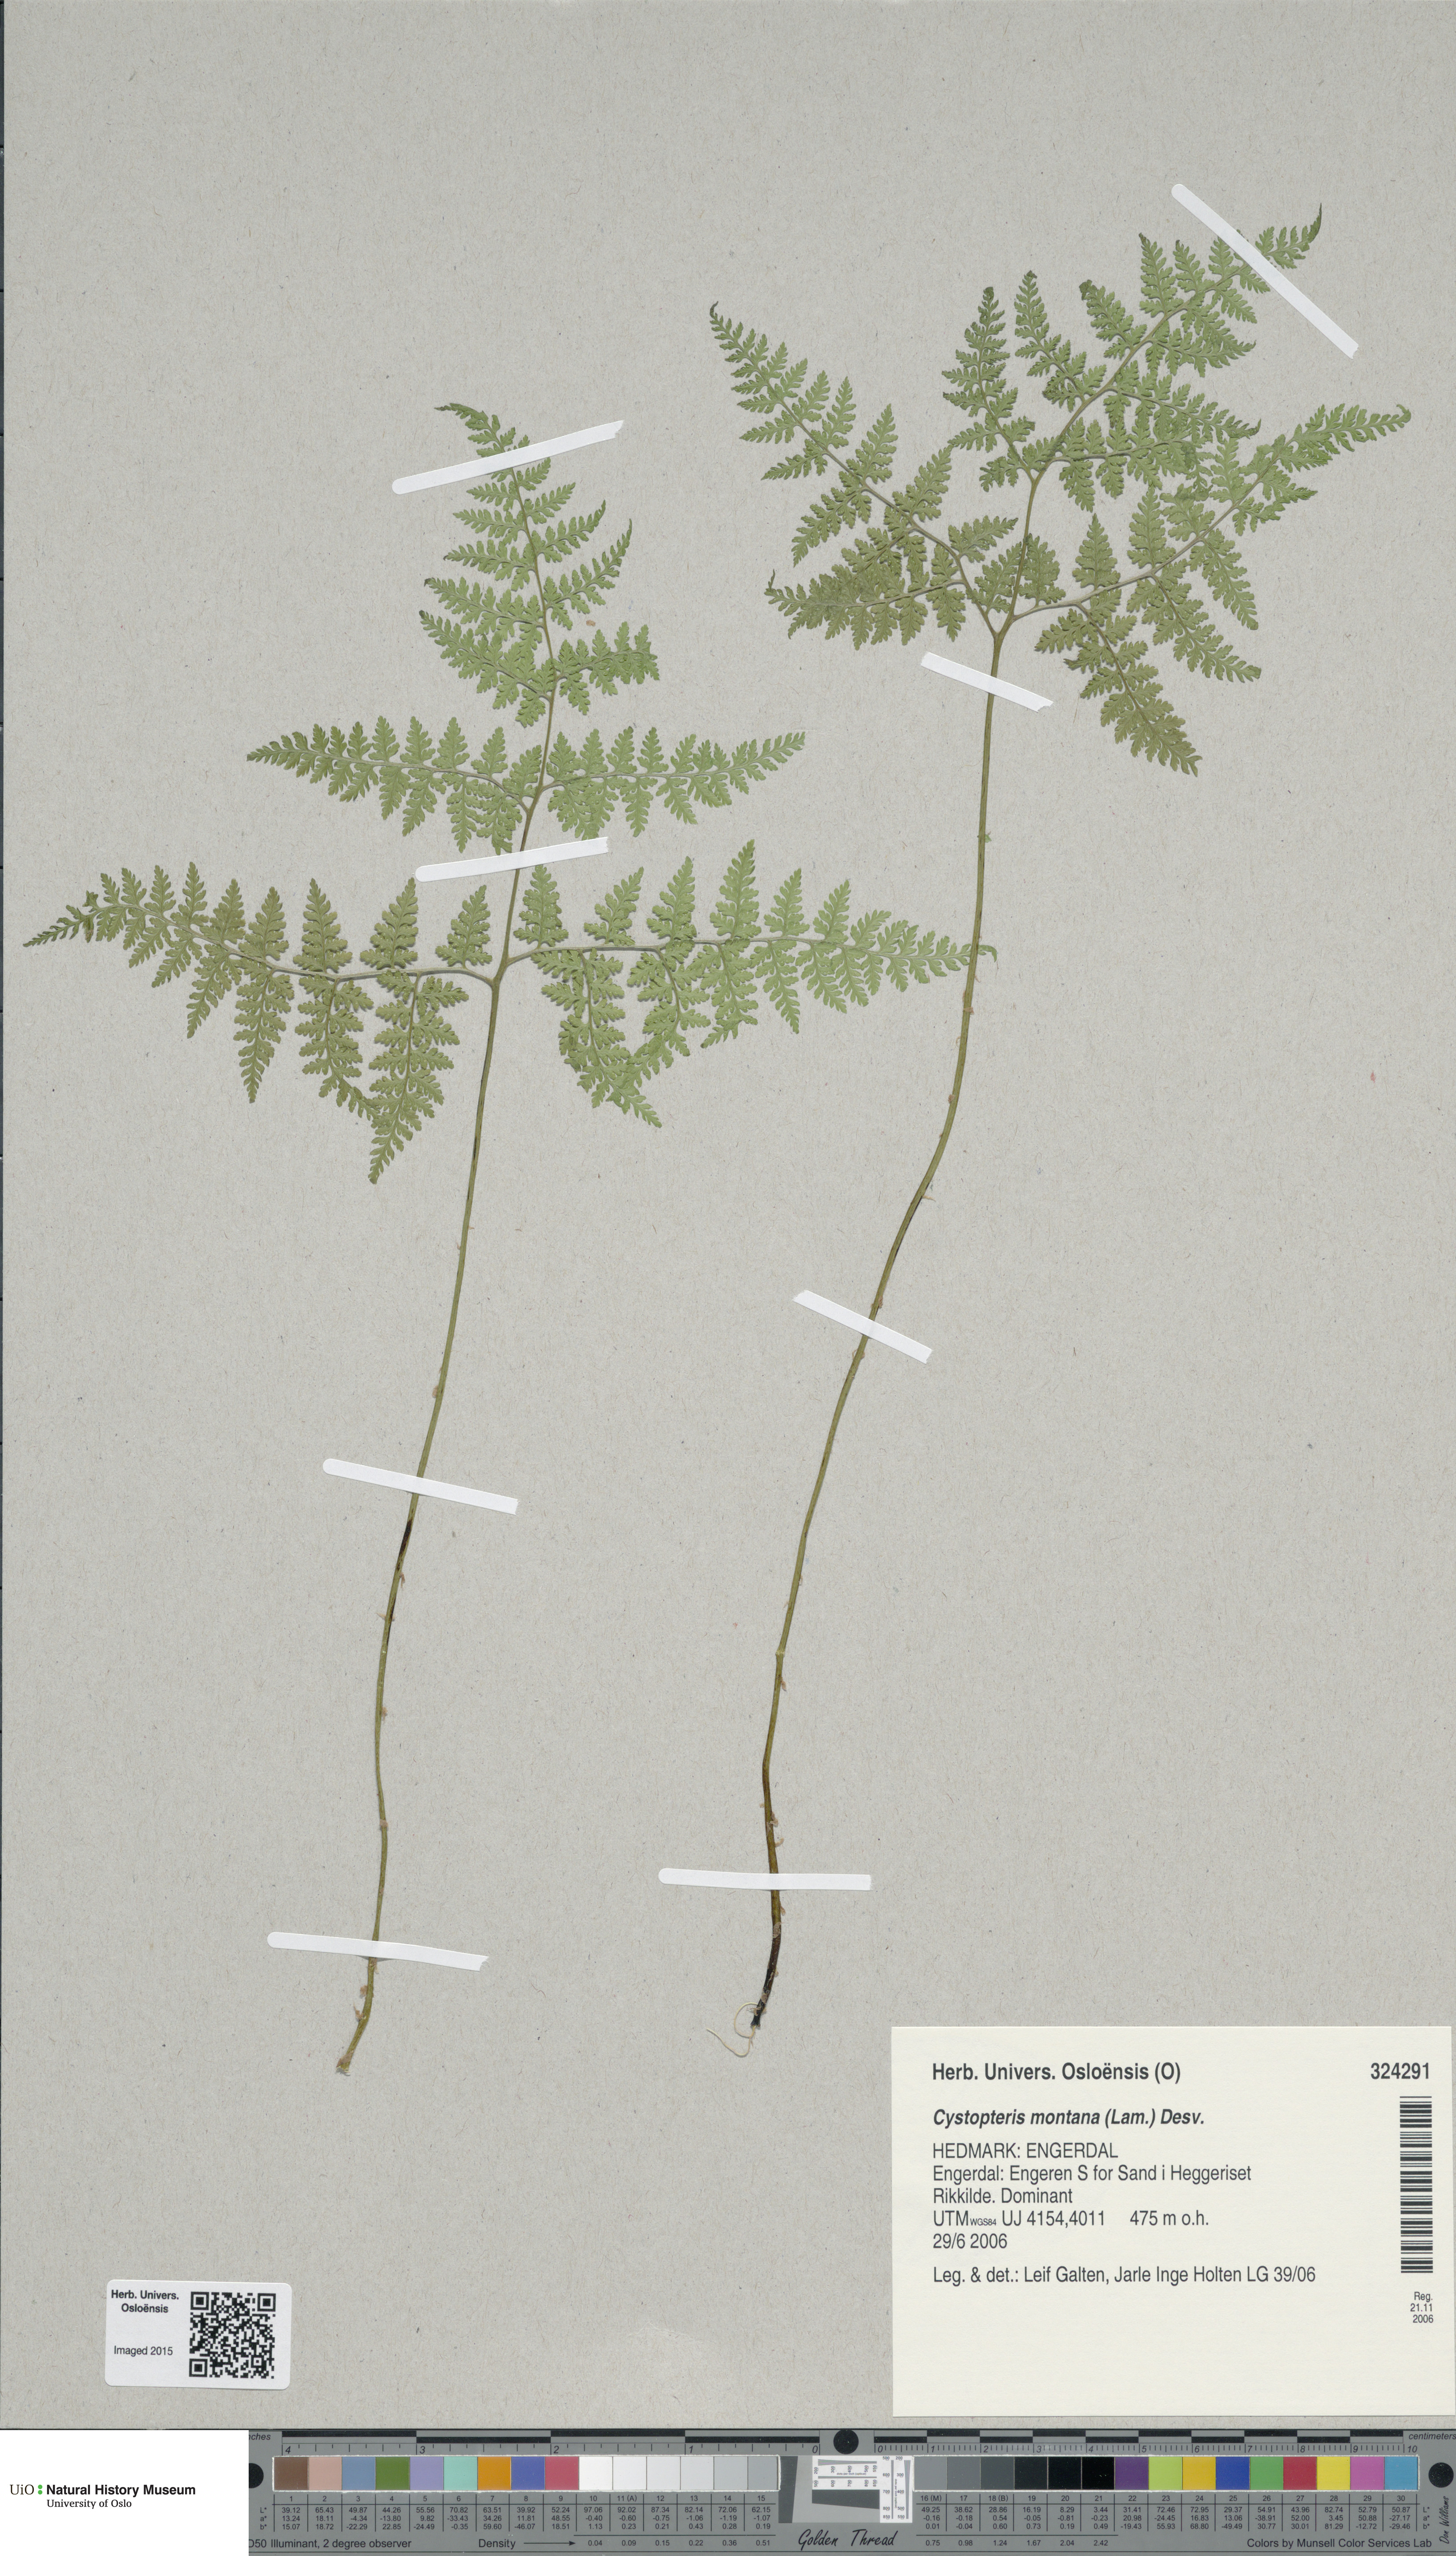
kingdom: Plantae
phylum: Tracheophyta
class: Polypodiopsida
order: Polypodiales
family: Cystopteridaceae
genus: Cystopteris
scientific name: Cystopteris montana
